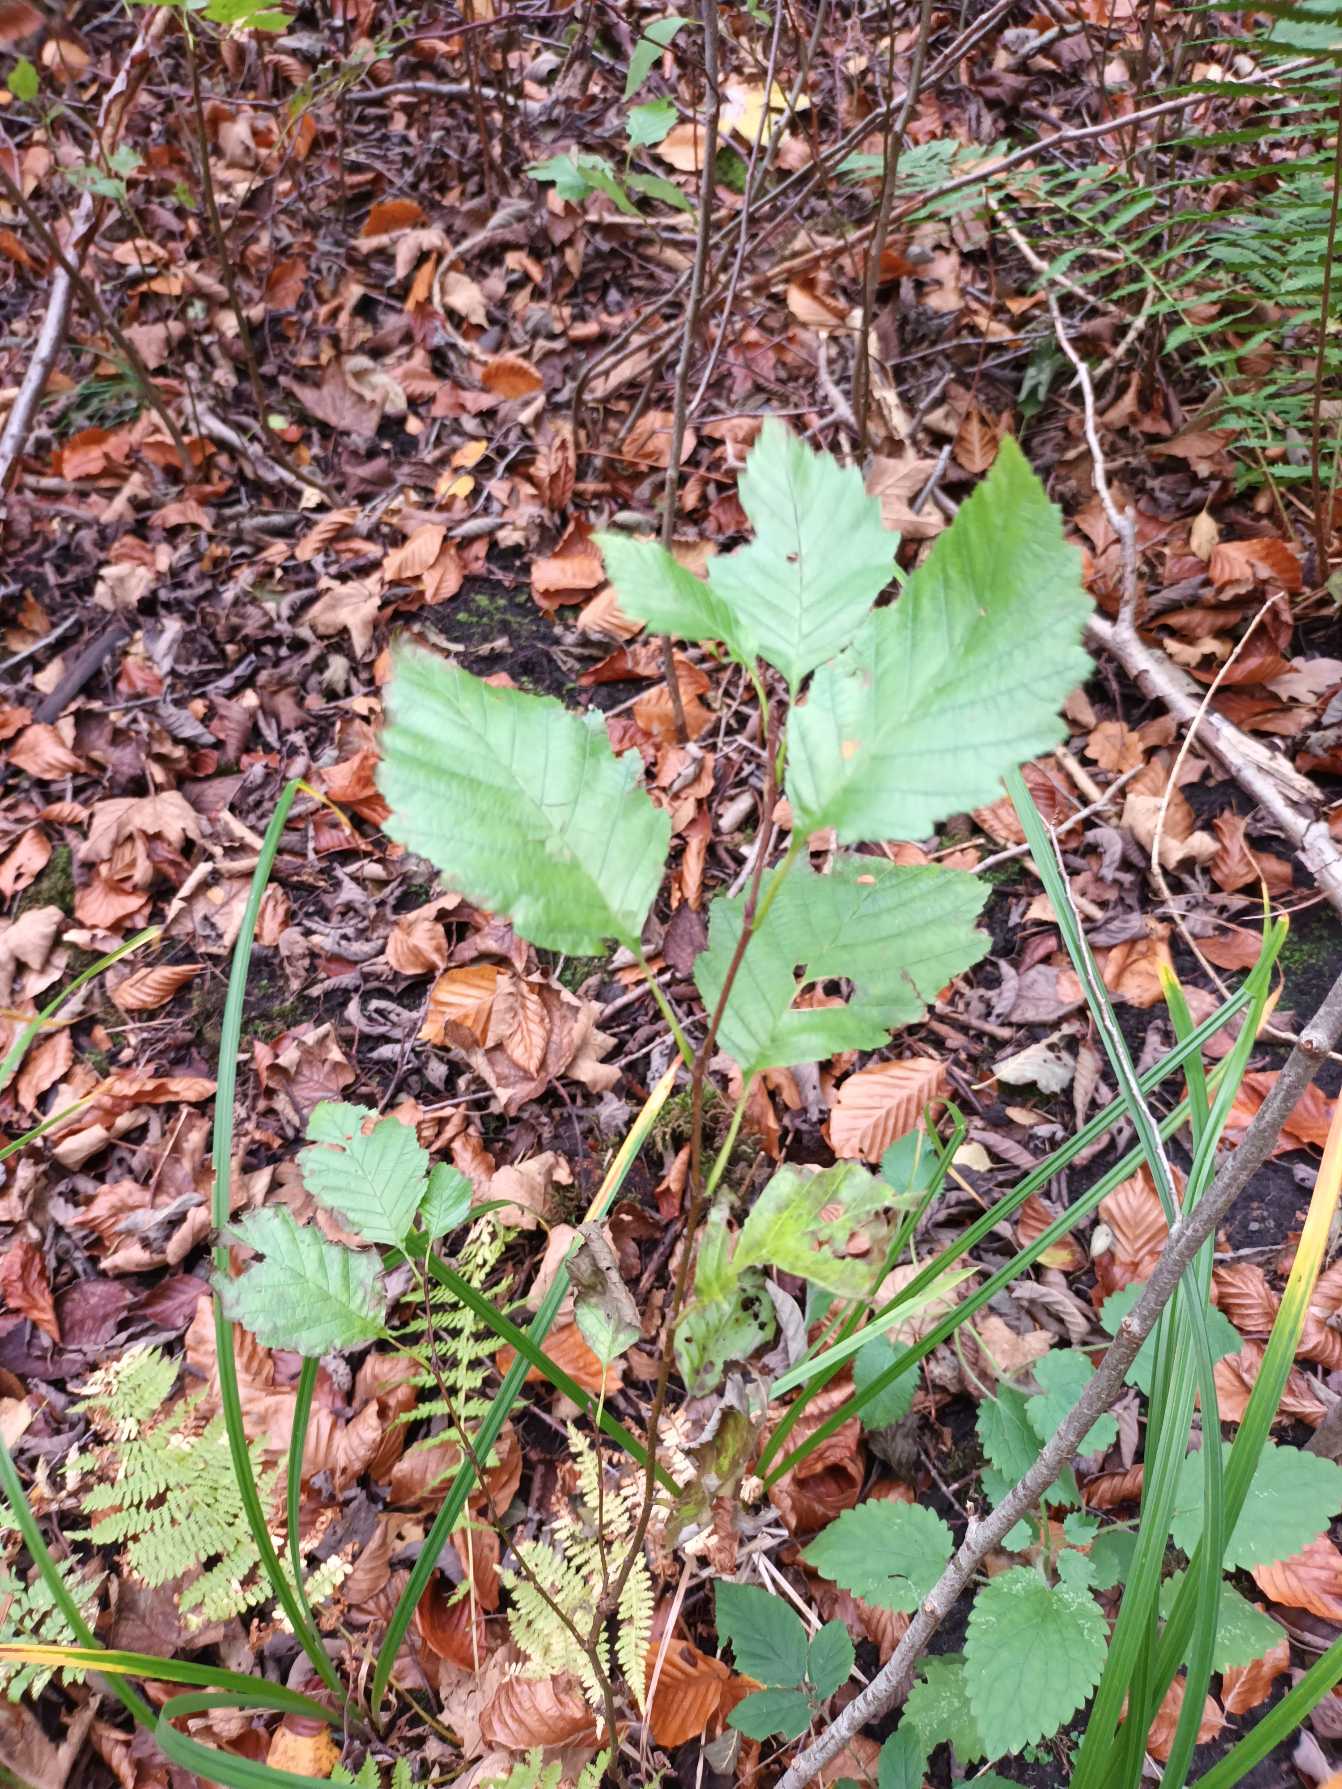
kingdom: Plantae
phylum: Tracheophyta
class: Magnoliopsida
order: Fagales
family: Betulaceae
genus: Alnus
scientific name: Alnus incana
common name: Grå-el/hvid-el
